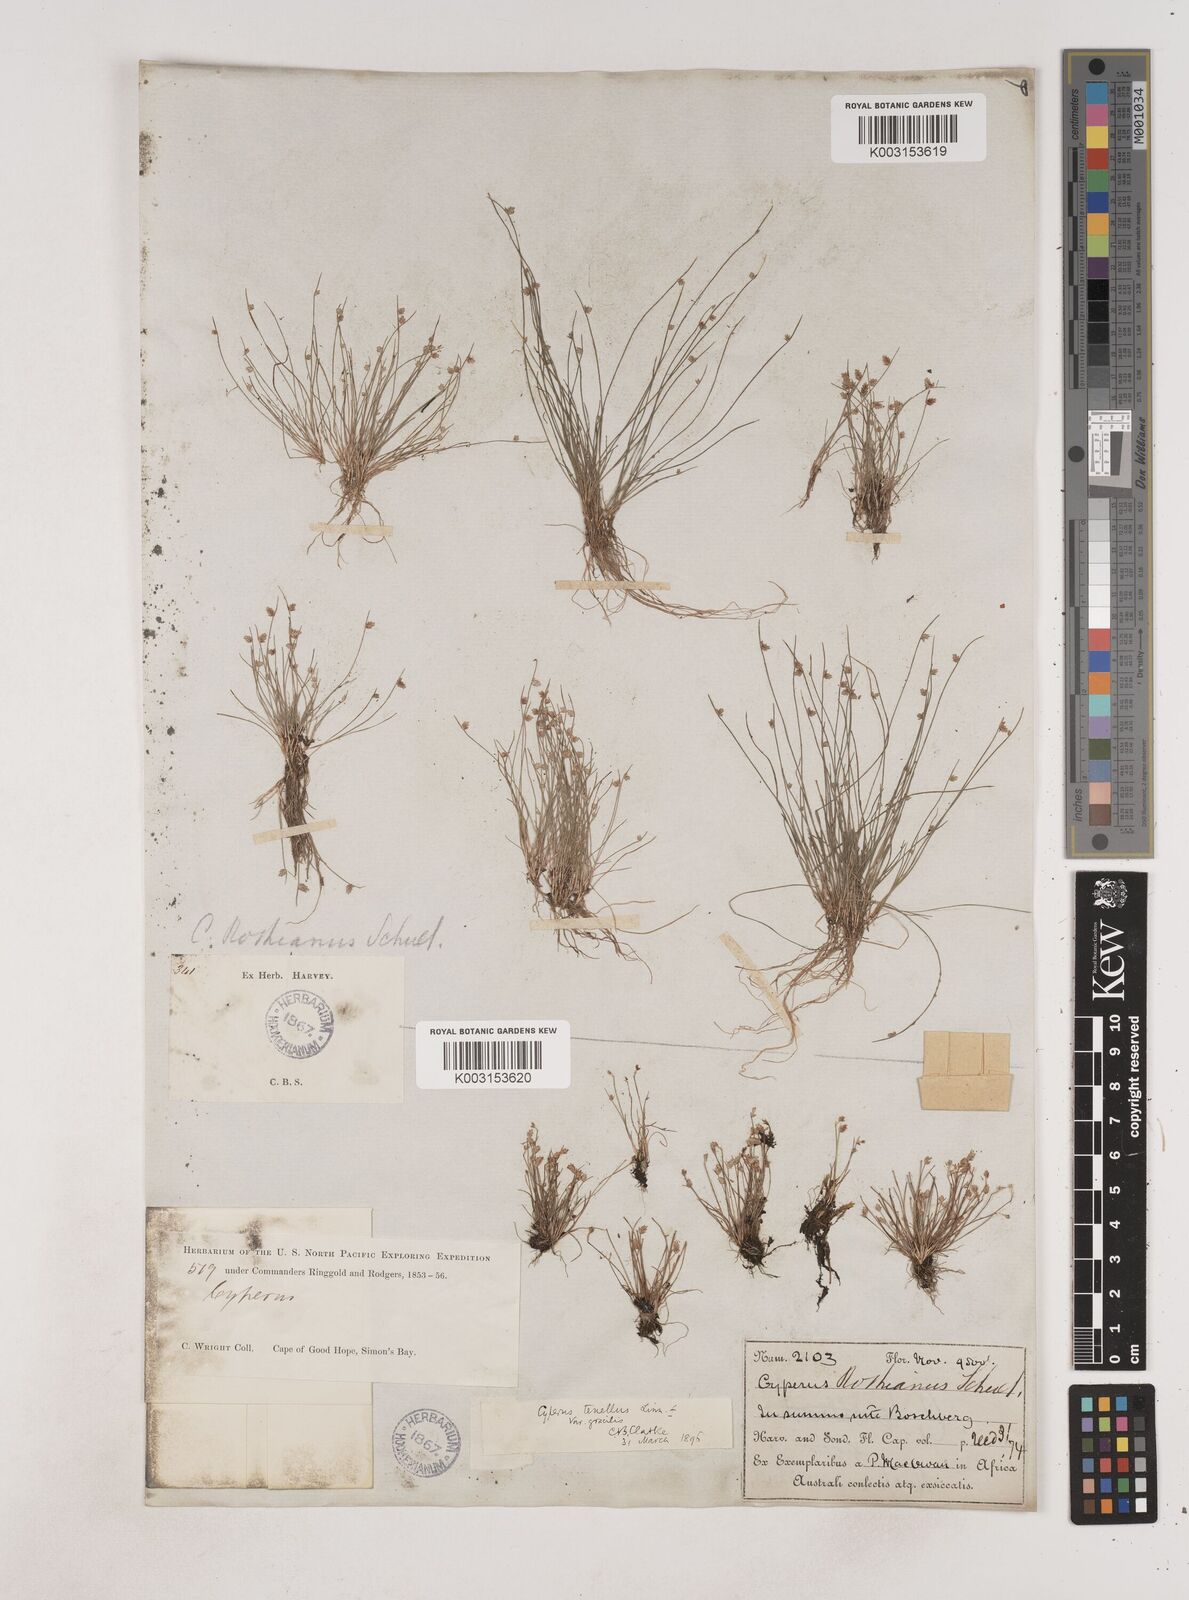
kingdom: Plantae
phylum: Tracheophyta
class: Liliopsida
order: Poales
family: Cyperaceae
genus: Isolepis
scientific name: Isolepis levynsiana
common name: Sedge
